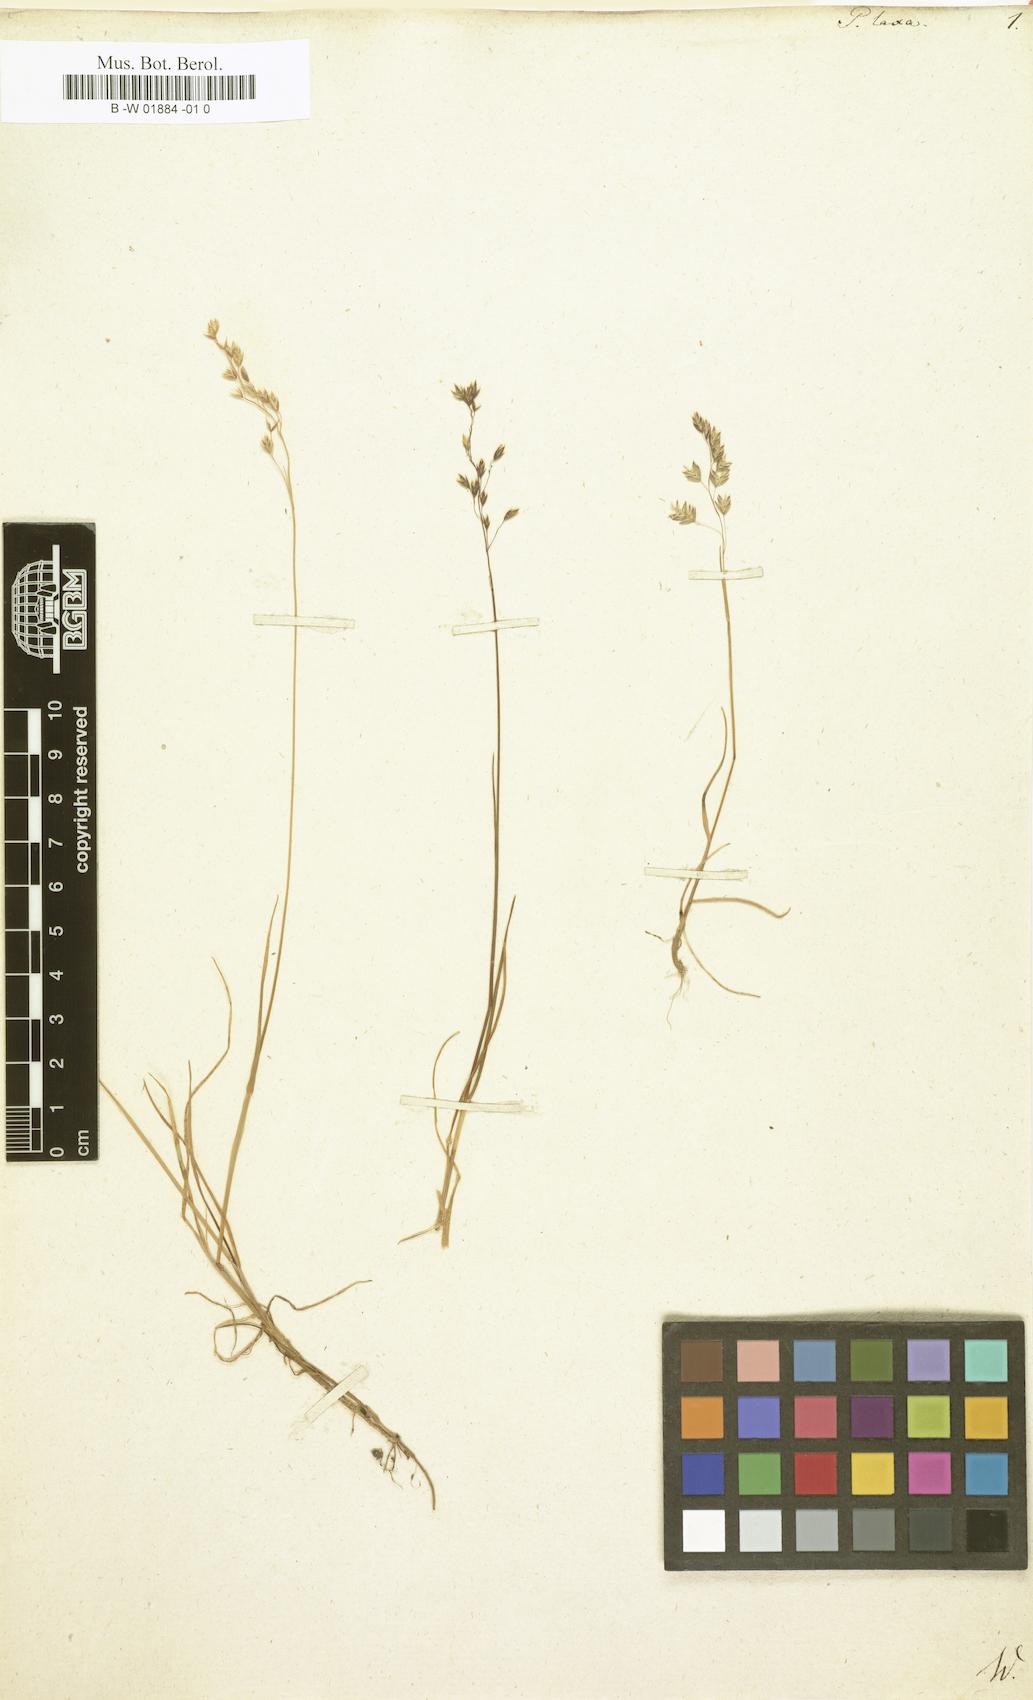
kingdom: Plantae
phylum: Tracheophyta
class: Liliopsida
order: Poales
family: Poaceae
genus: Poa
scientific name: Poa laxa
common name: Lax bluegrass
